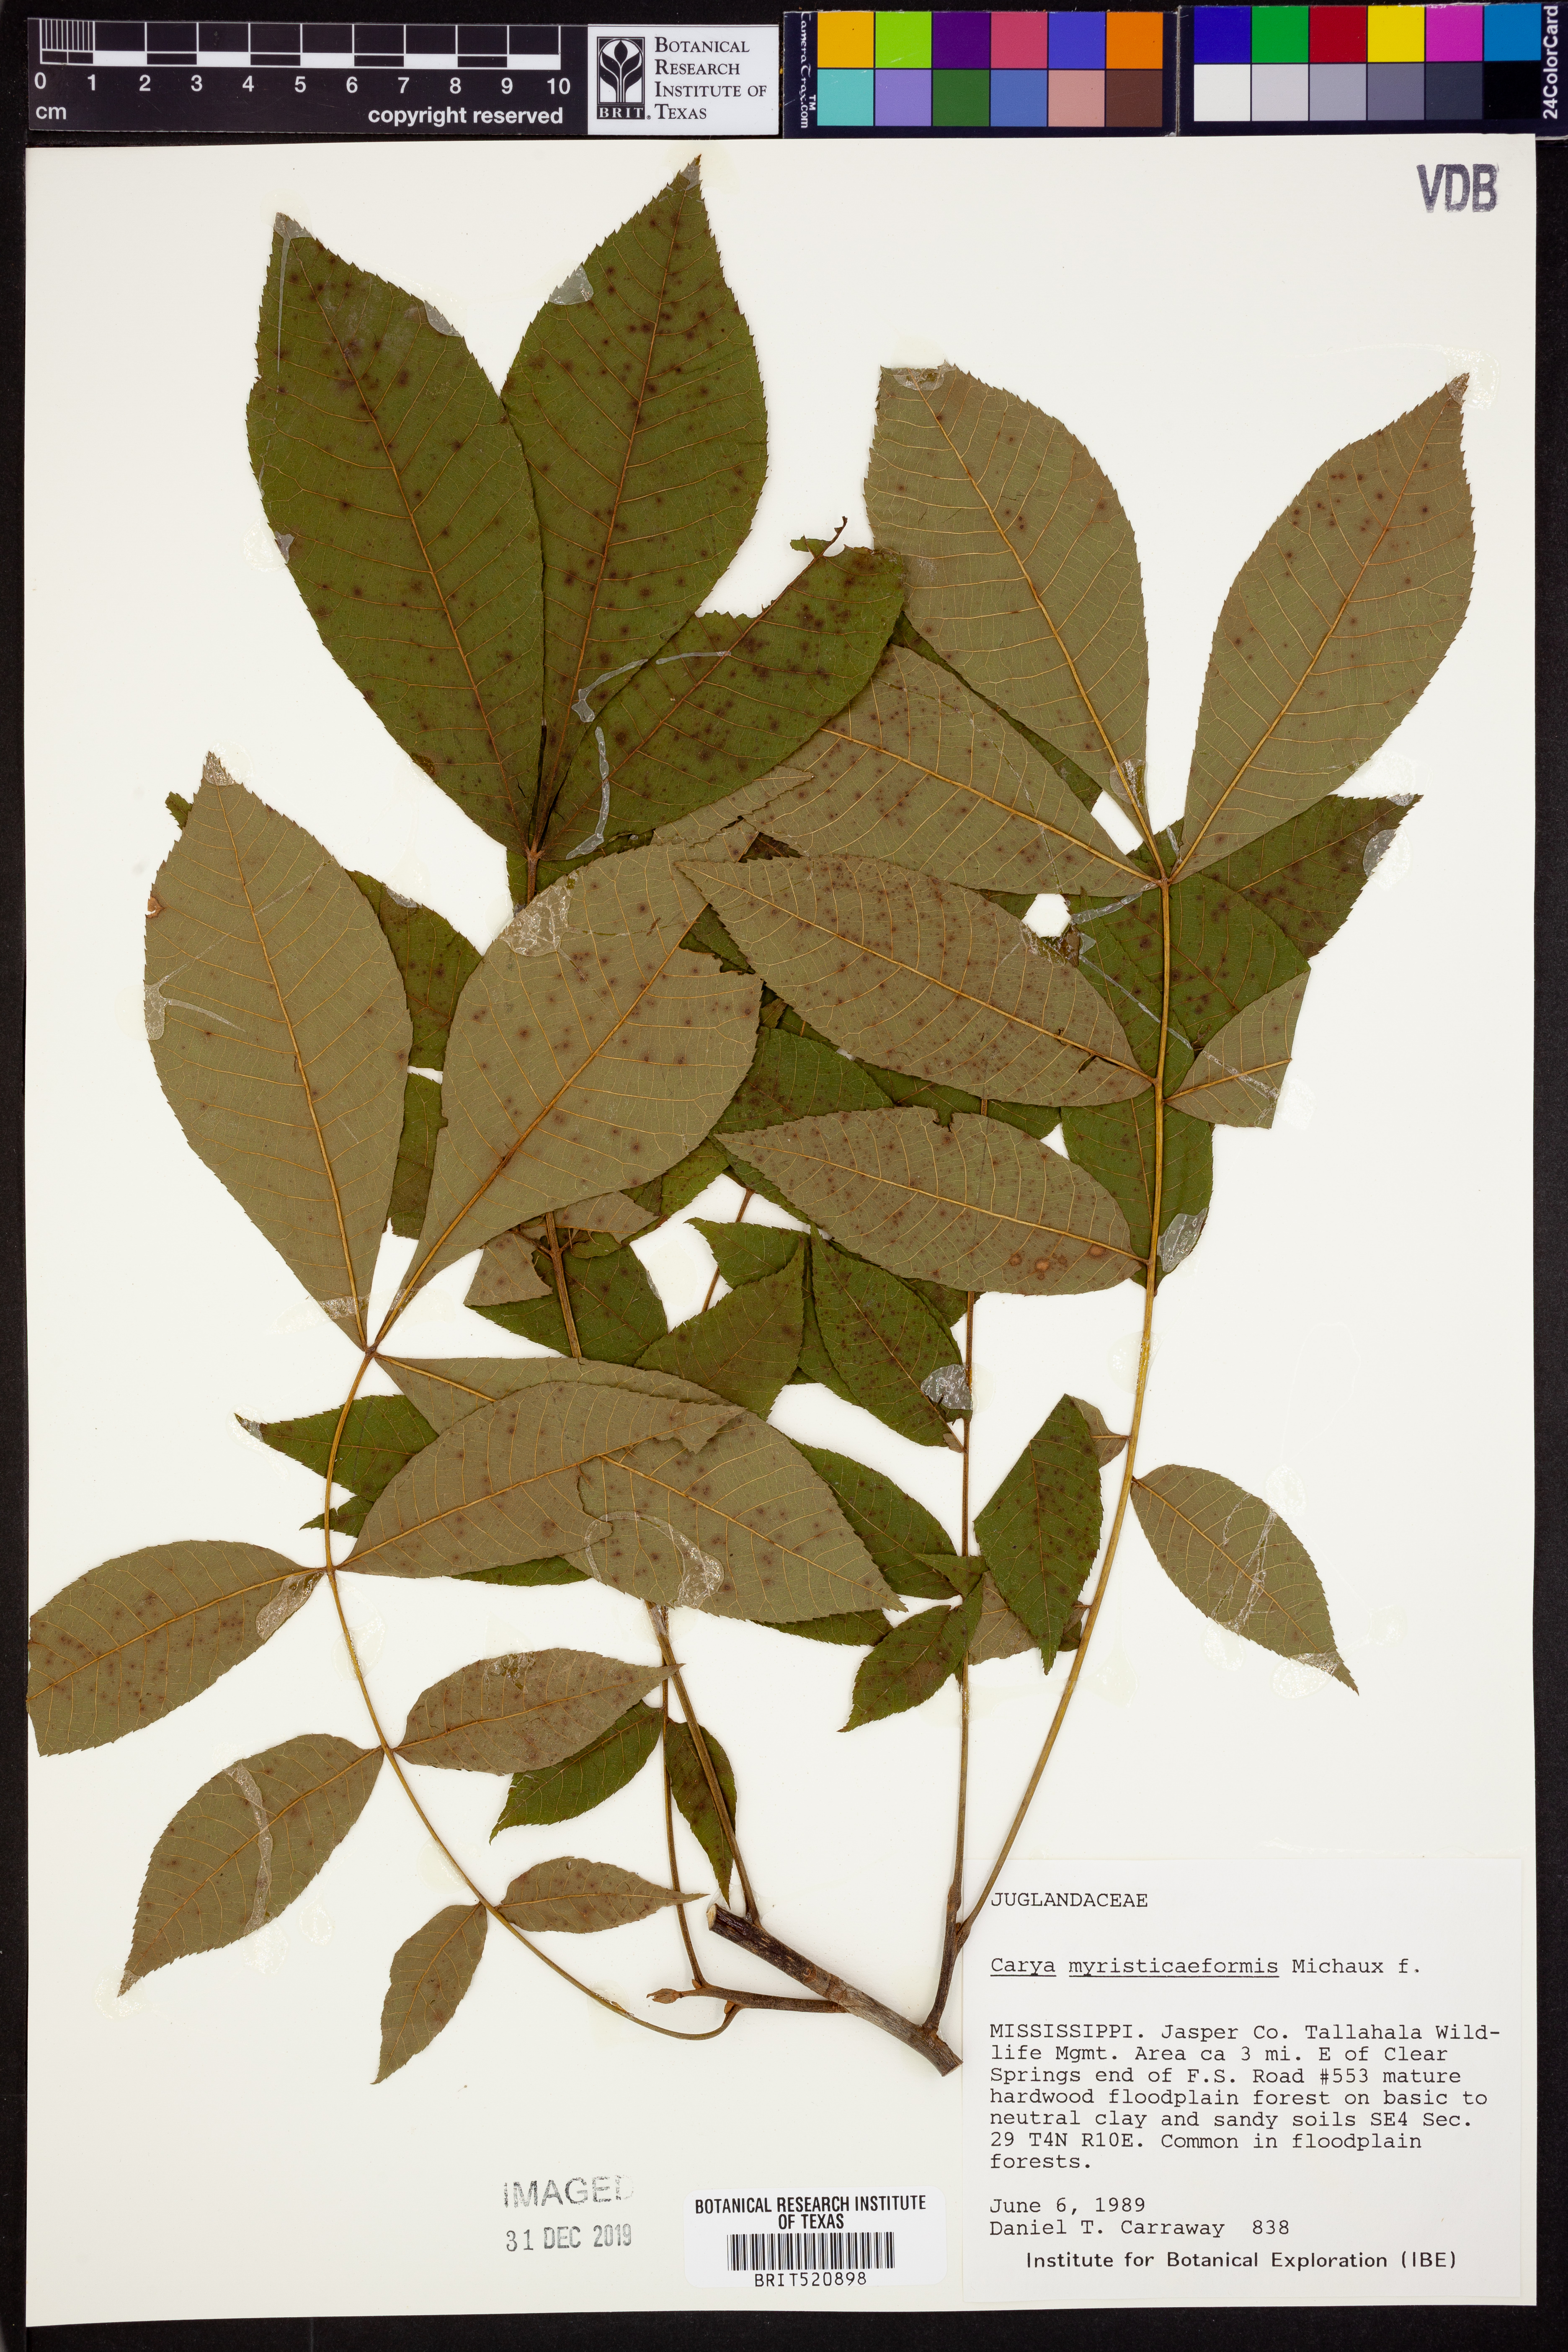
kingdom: Plantae
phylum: Tracheophyta
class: Magnoliopsida
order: Fagales
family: Juglandaceae
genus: Carya
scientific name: Carya myristiciformis
